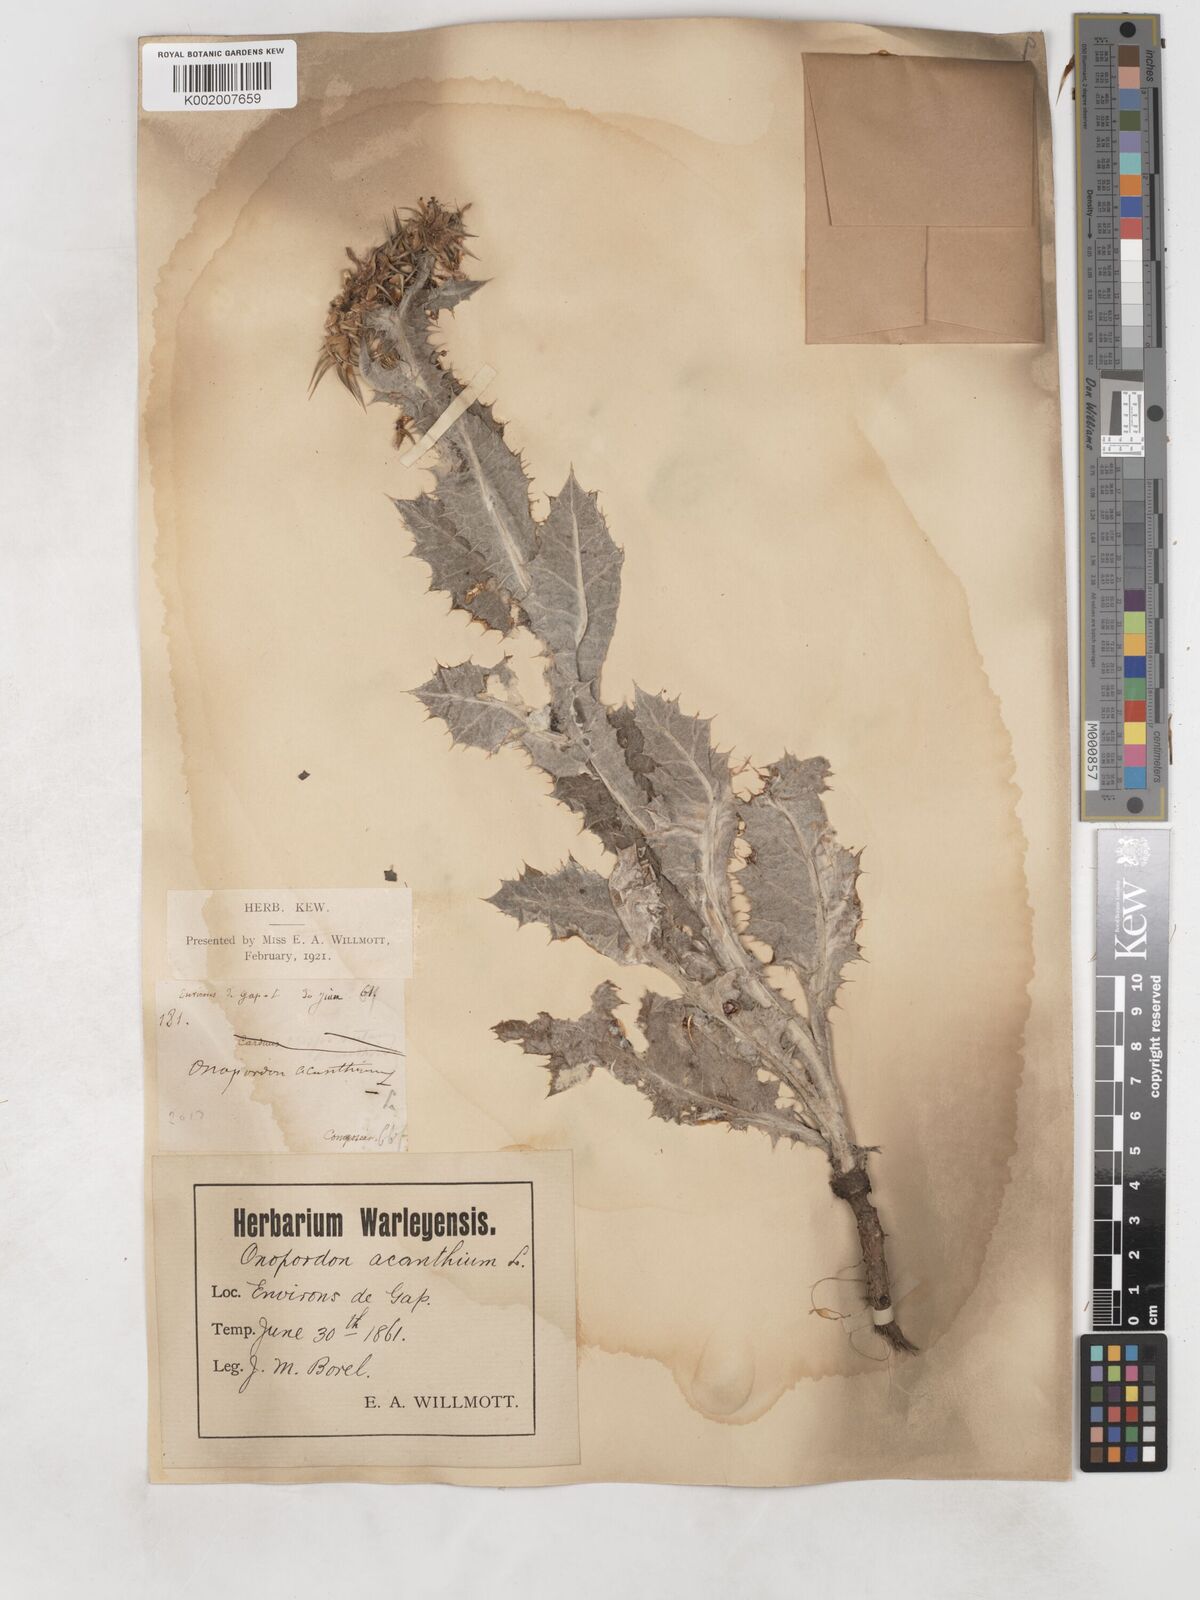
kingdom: Plantae
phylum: Tracheophyta
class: Magnoliopsida
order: Asterales
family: Asteraceae
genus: Onopordum
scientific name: Onopordum acanthium
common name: Scotch thistle
